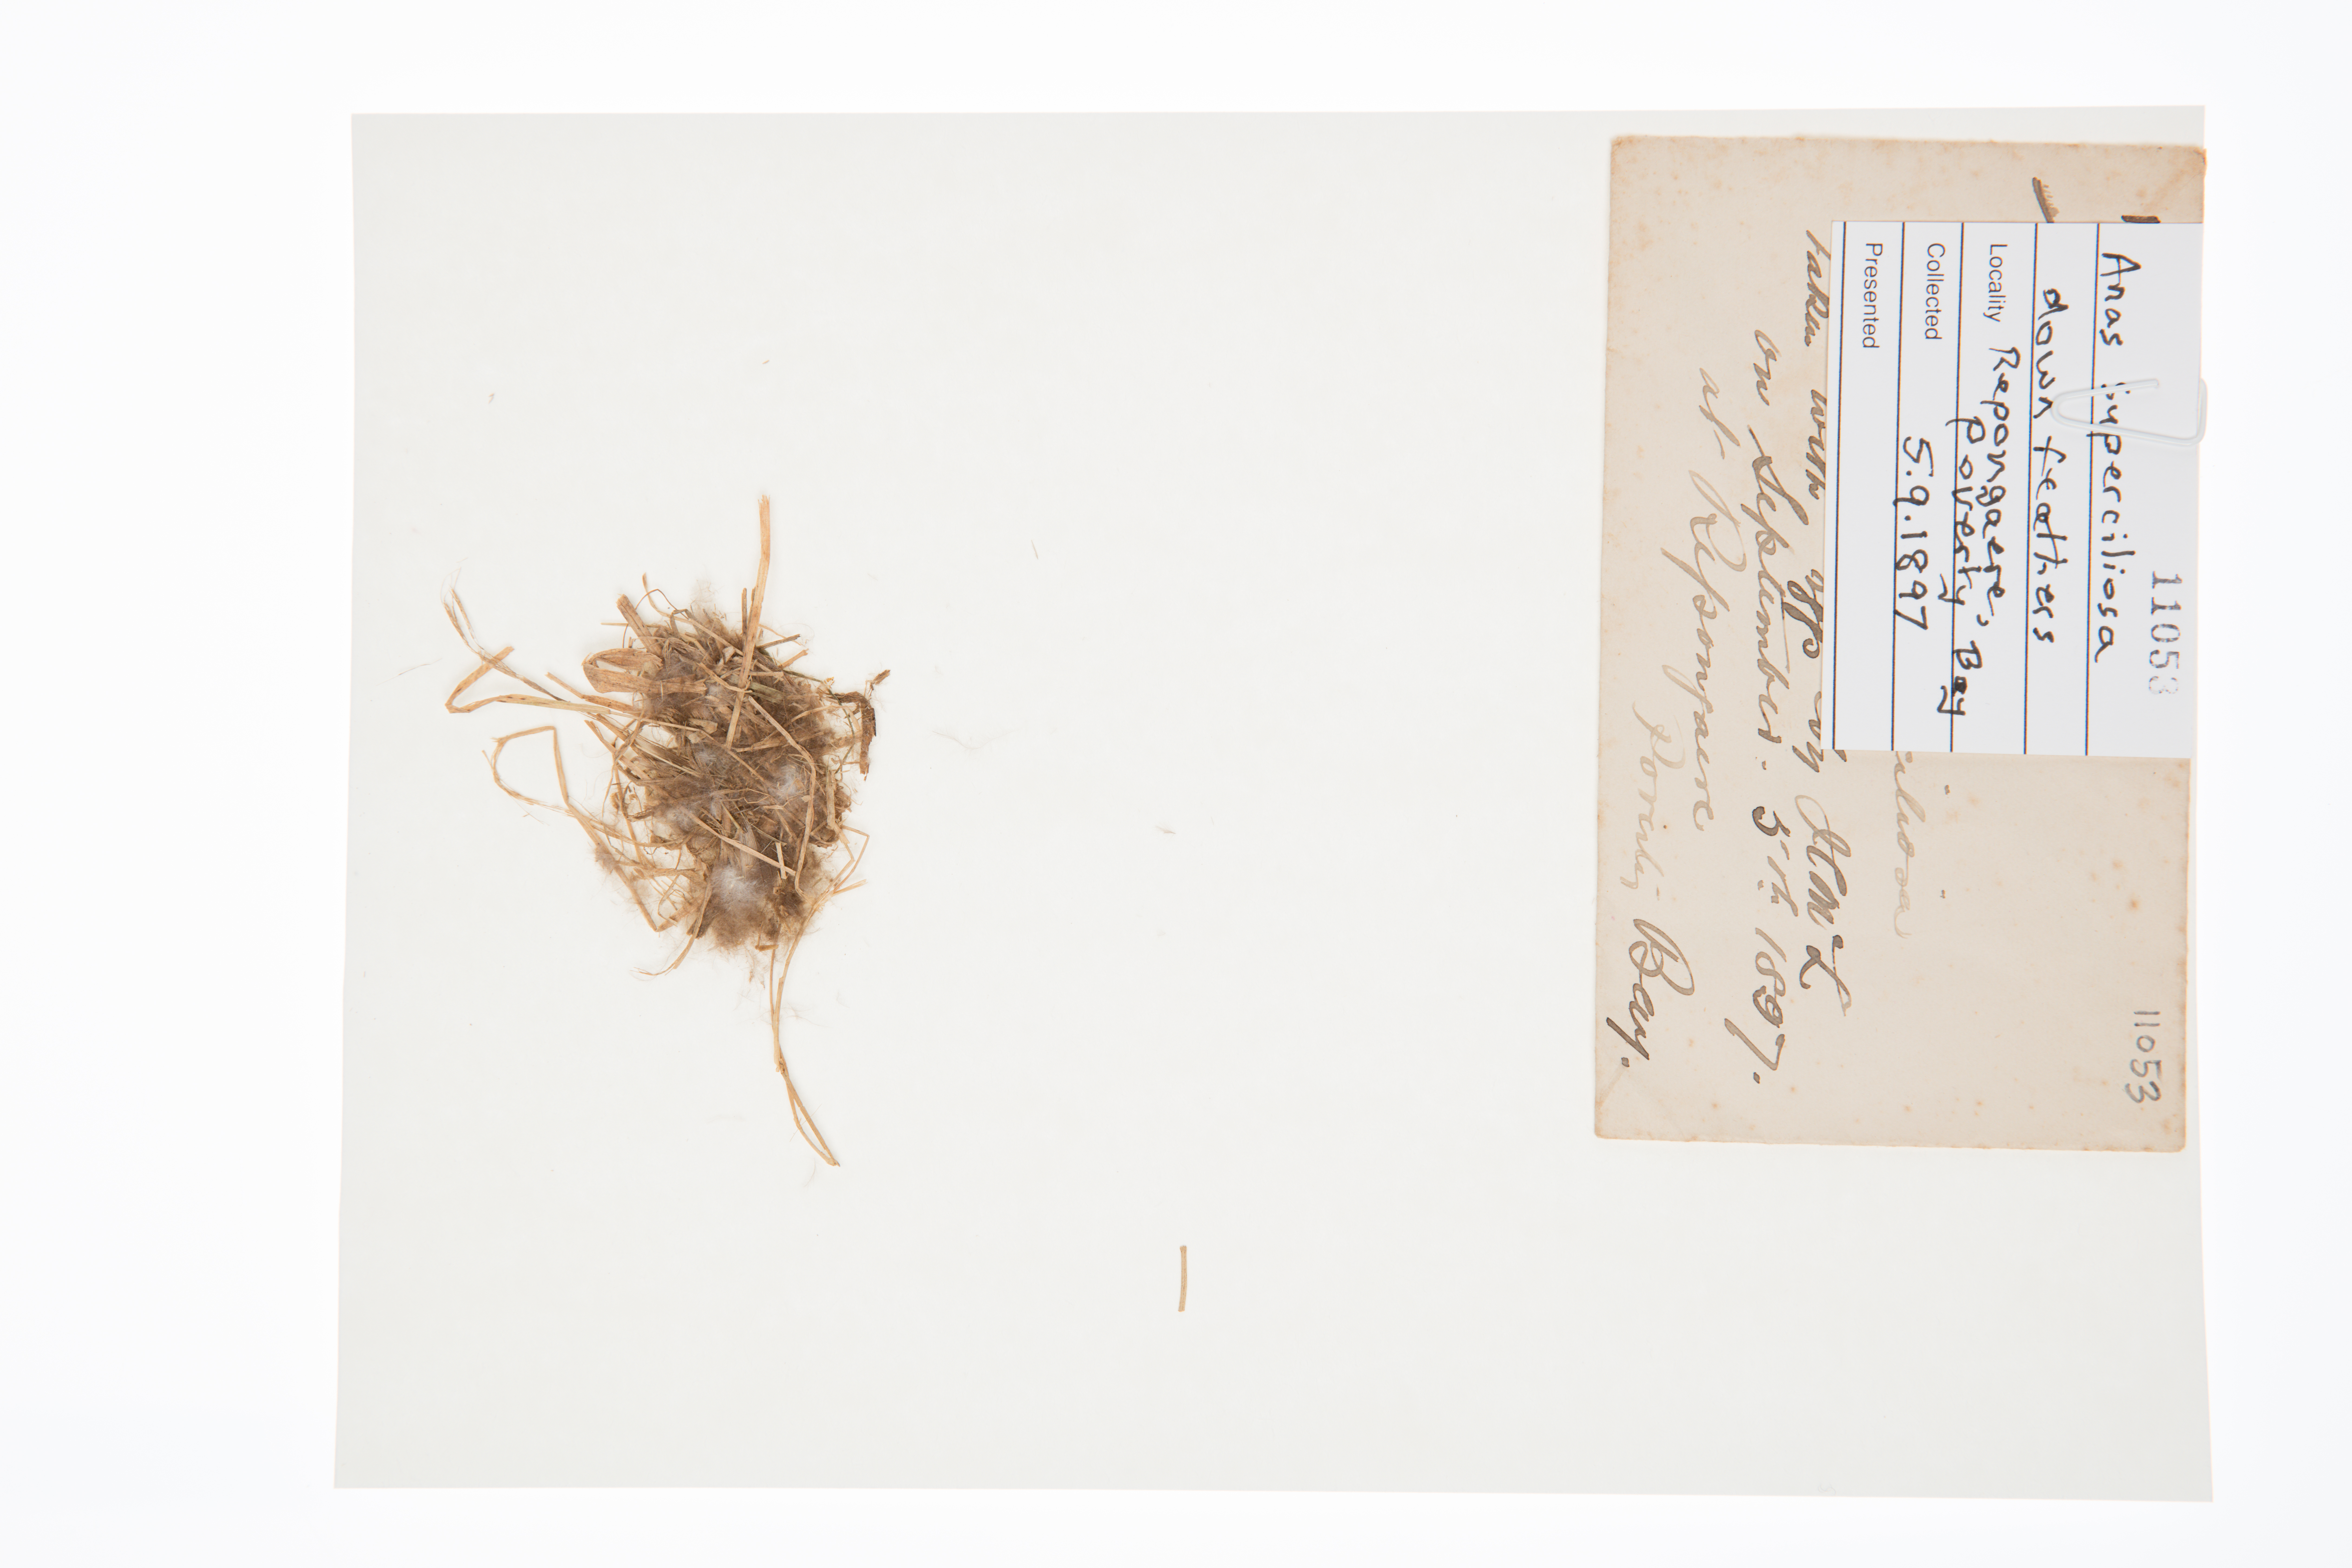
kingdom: Animalia
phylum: Chordata
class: Aves
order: Anseriformes
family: Anatidae
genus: Anas
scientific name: Anas superciliosa
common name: Pacific black duck
